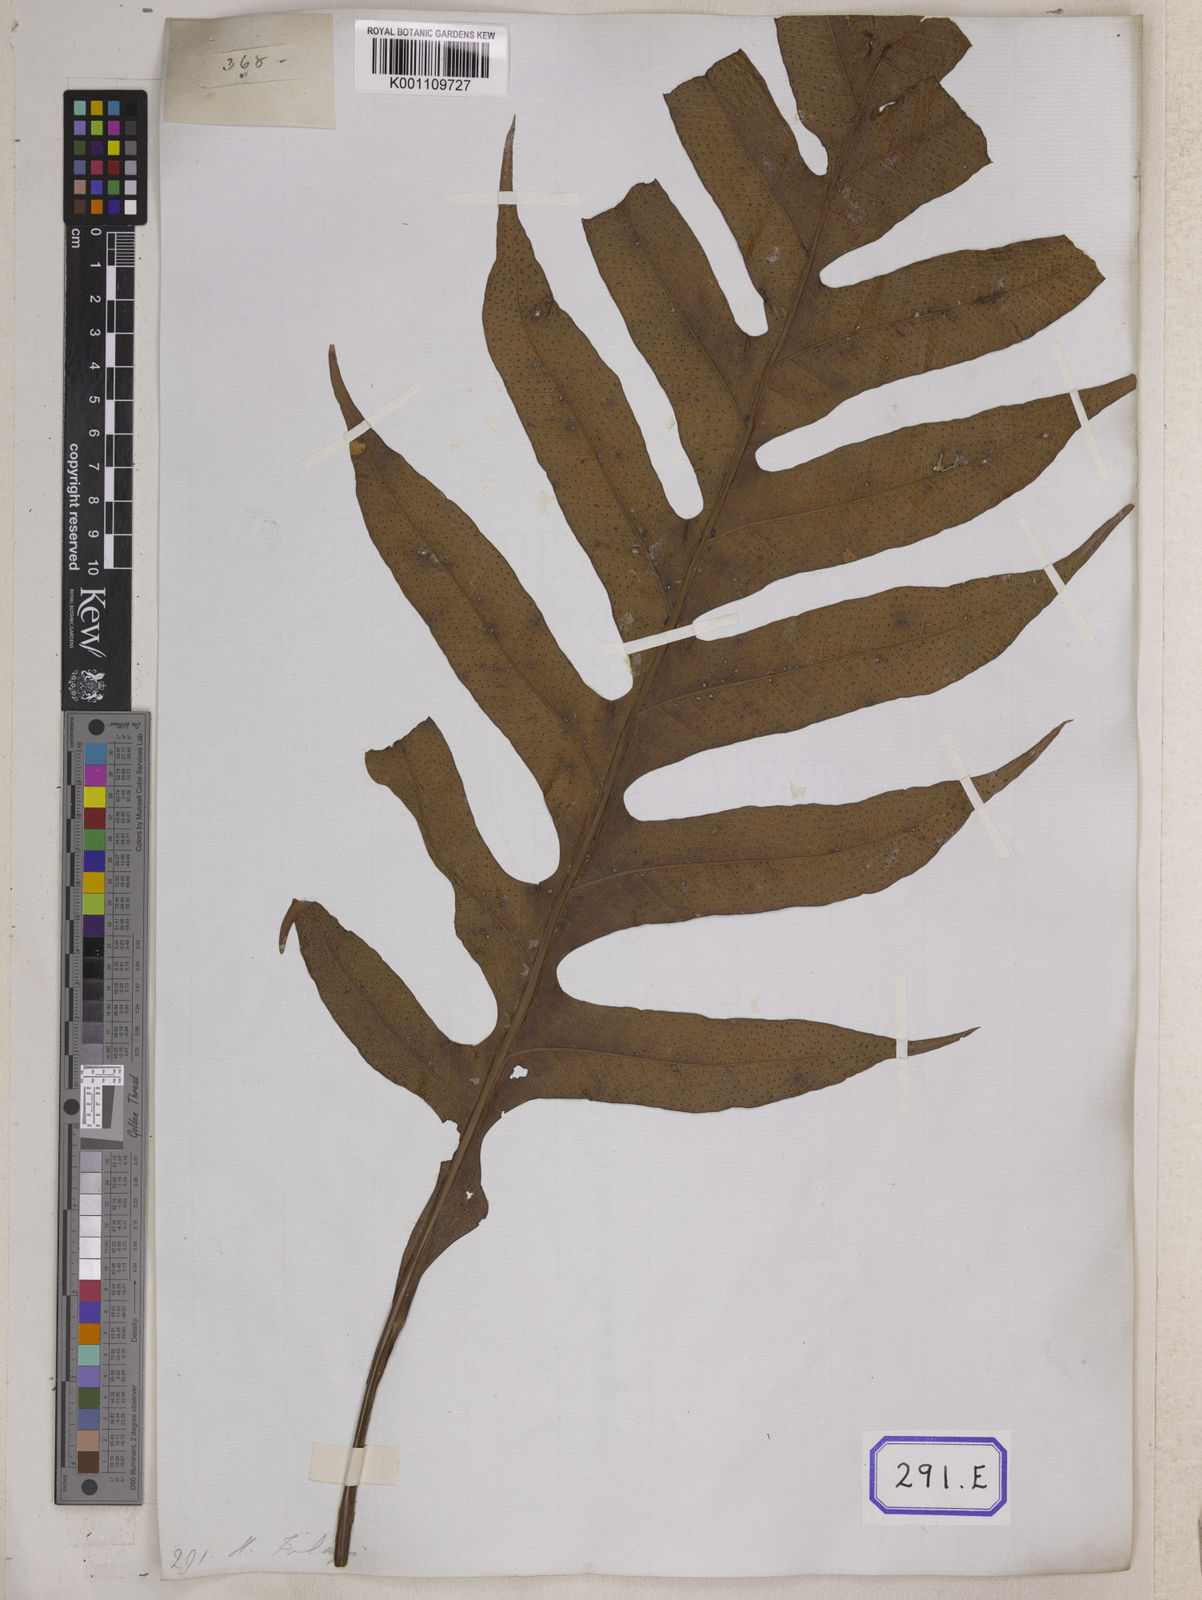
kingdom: Plantae
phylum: Tracheophyta
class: Polypodiopsida
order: Polypodiales
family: Polypodiaceae
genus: Drynaria
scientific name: Drynaria quercifolia
